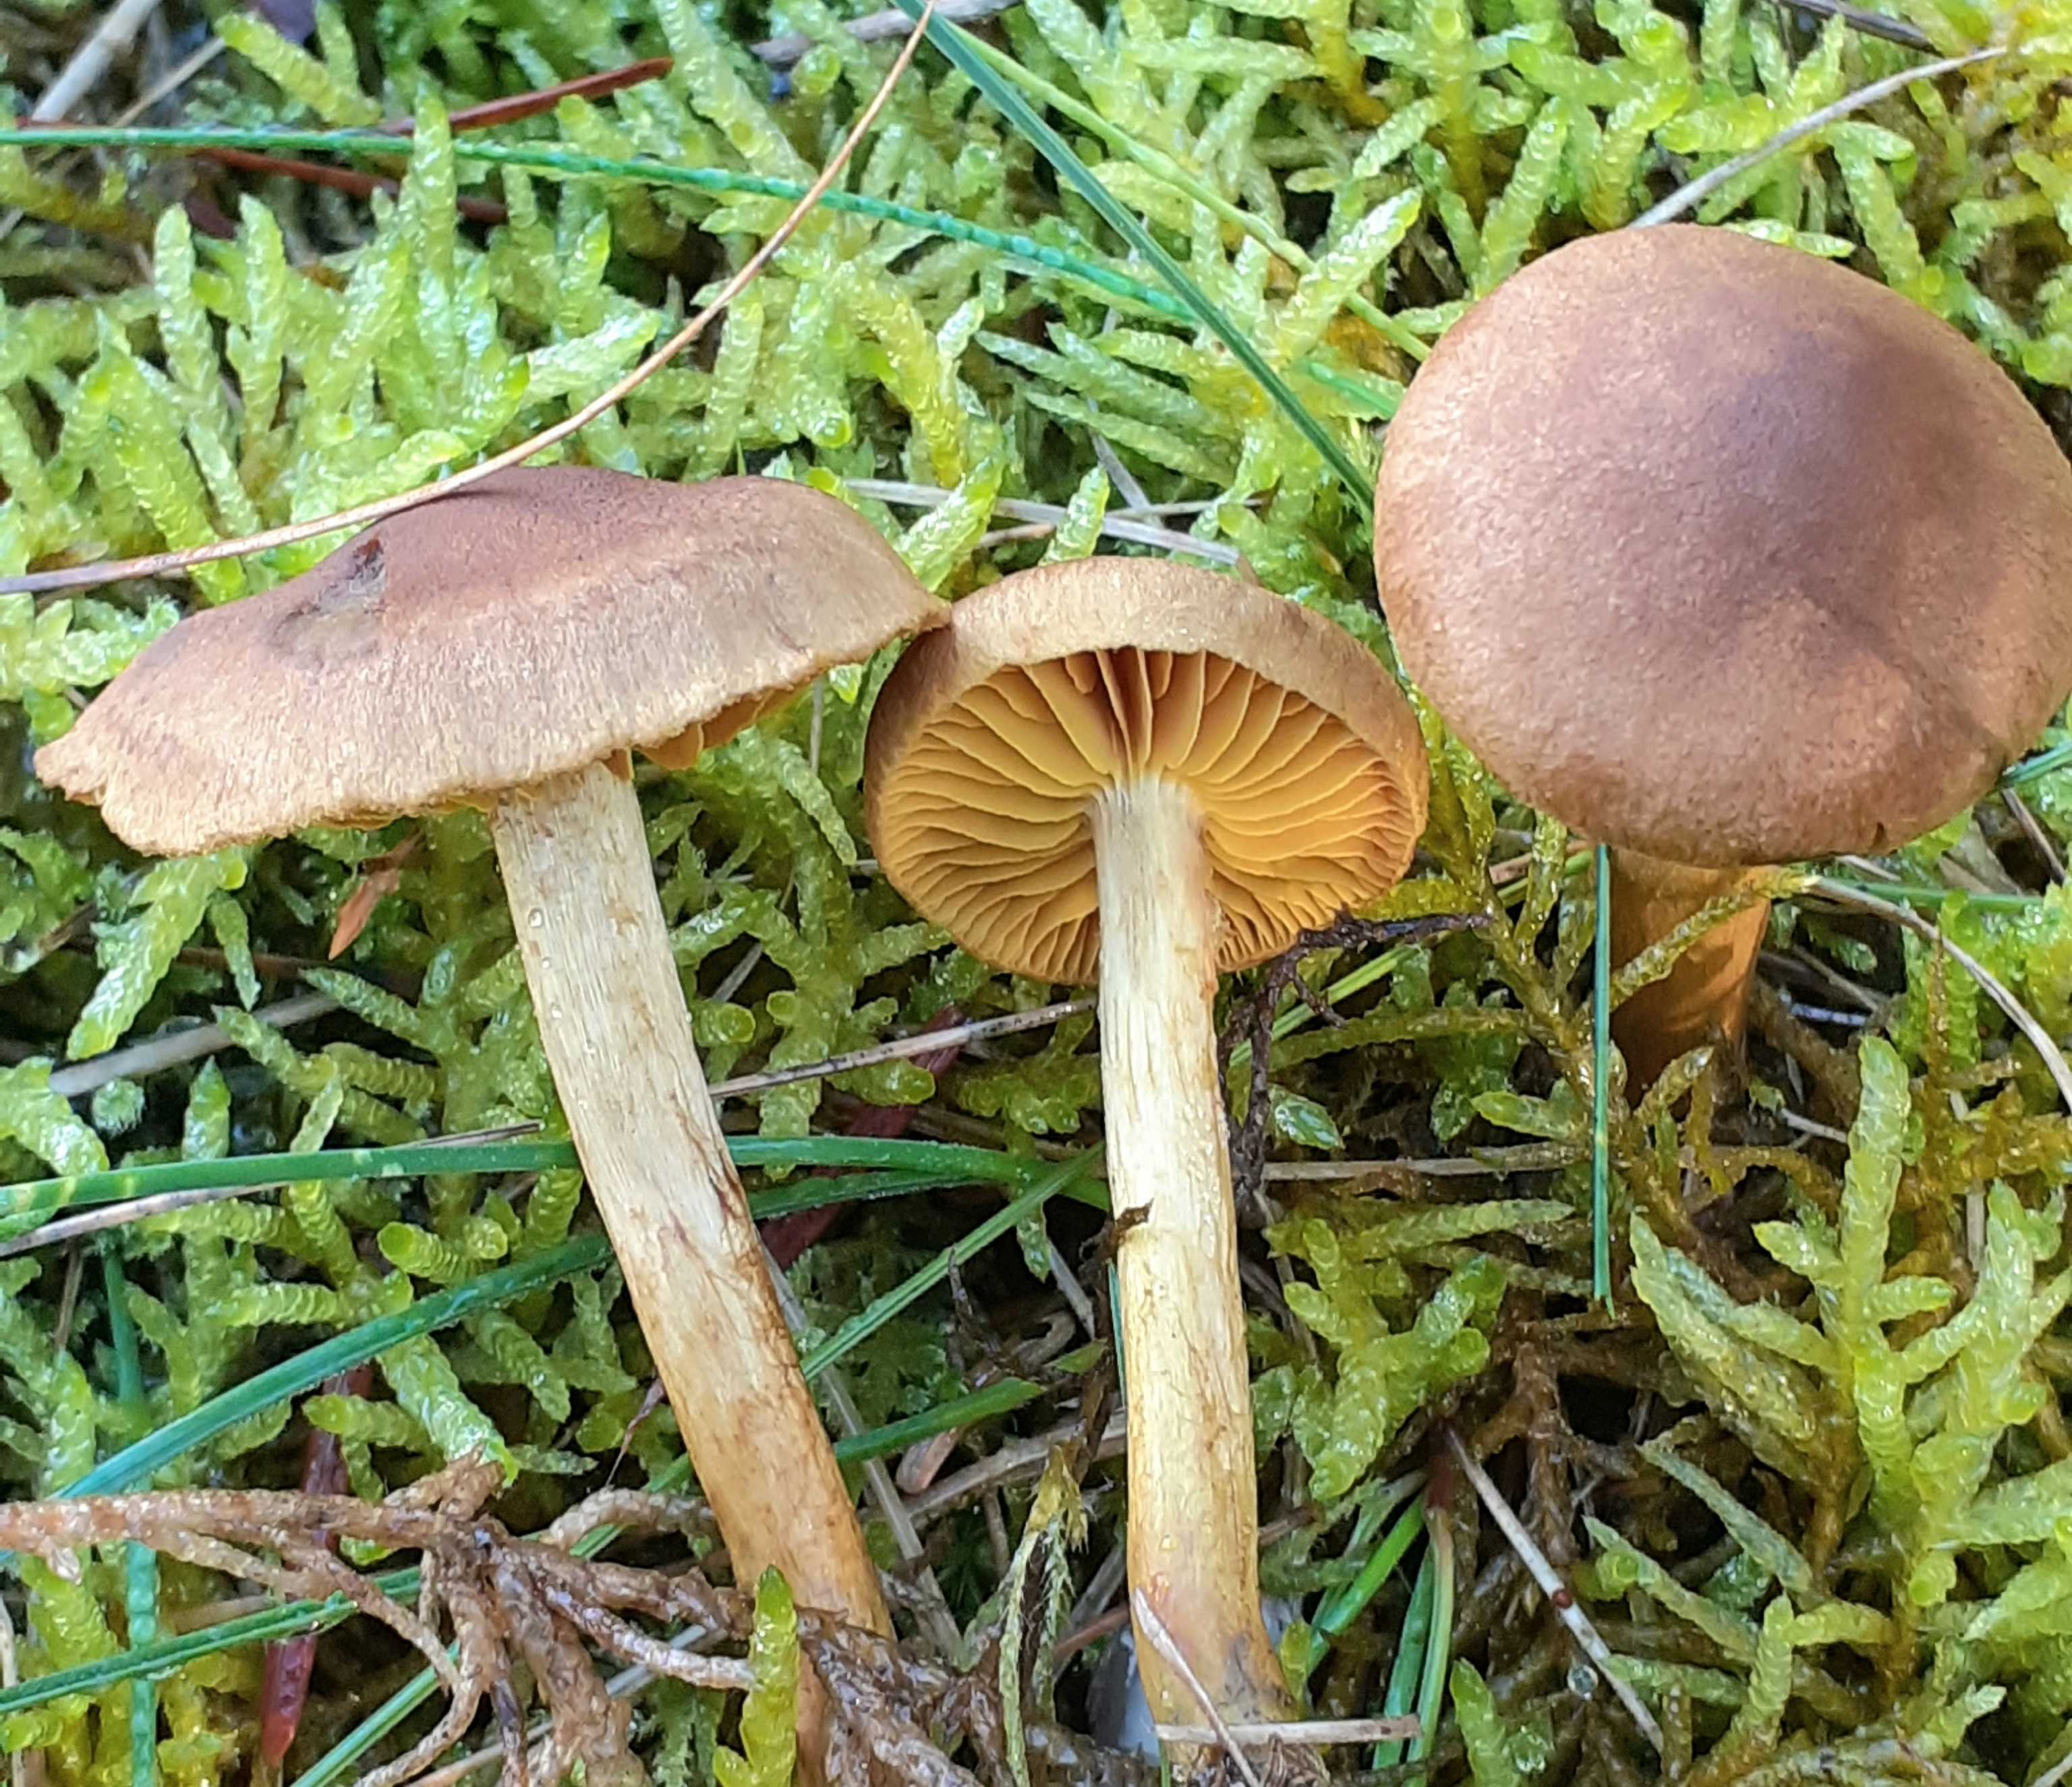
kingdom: Fungi
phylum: Basidiomycota
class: Agaricomycetes
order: Agaricales
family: Cortinariaceae
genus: Cortinarius
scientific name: Cortinarius
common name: gulbladet slørhat
